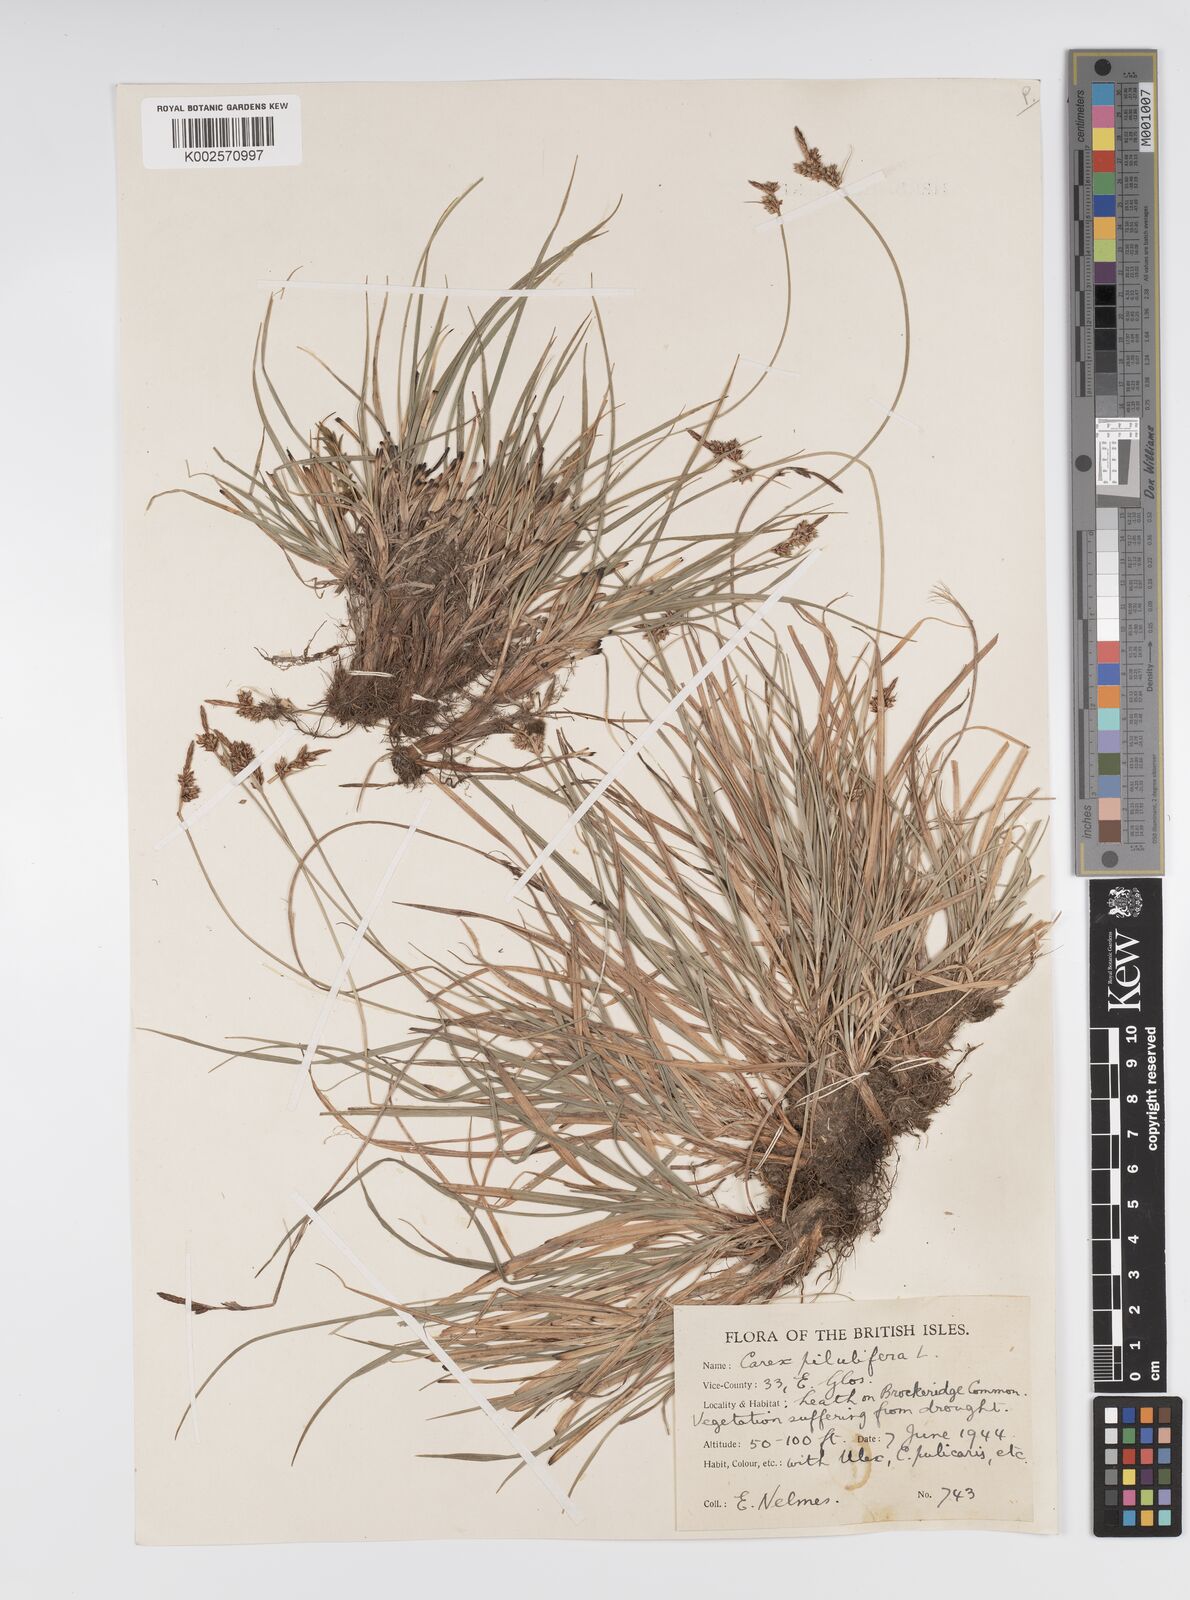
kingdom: Plantae
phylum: Tracheophyta
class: Liliopsida
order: Poales
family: Cyperaceae
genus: Carex
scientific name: Carex praecox
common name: Early sedge
